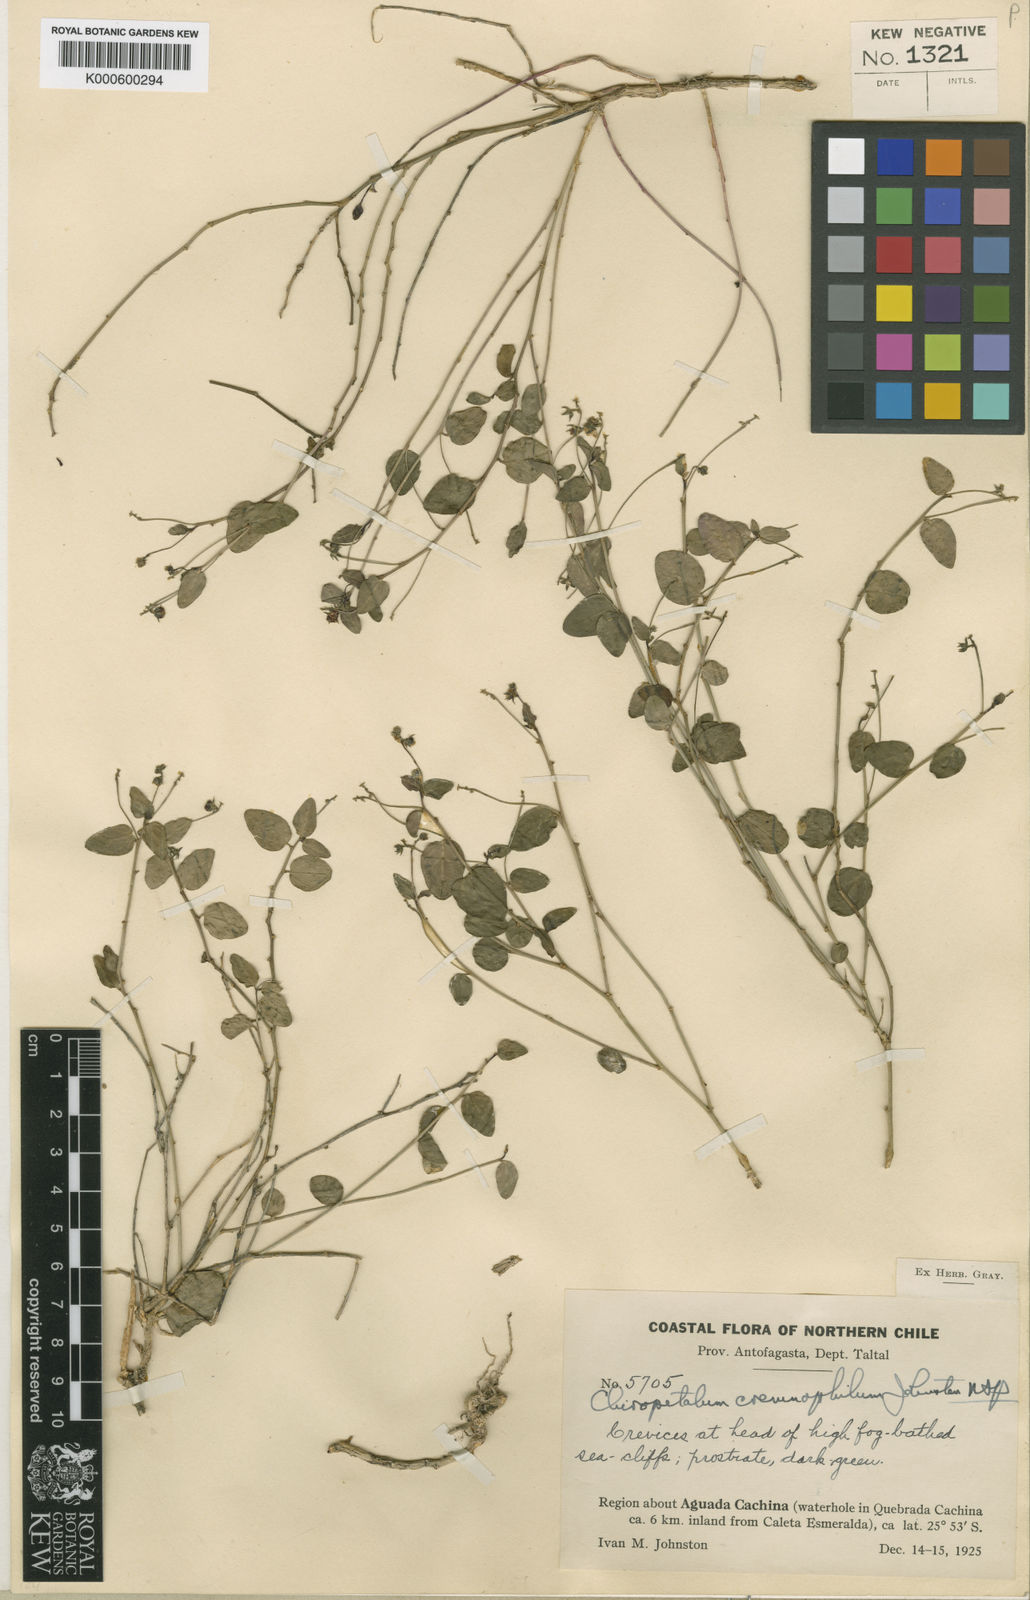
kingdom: Plantae
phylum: Tracheophyta
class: Magnoliopsida
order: Malpighiales
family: Euphorbiaceae
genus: Chiropetalum
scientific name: Chiropetalum cremnophilum
